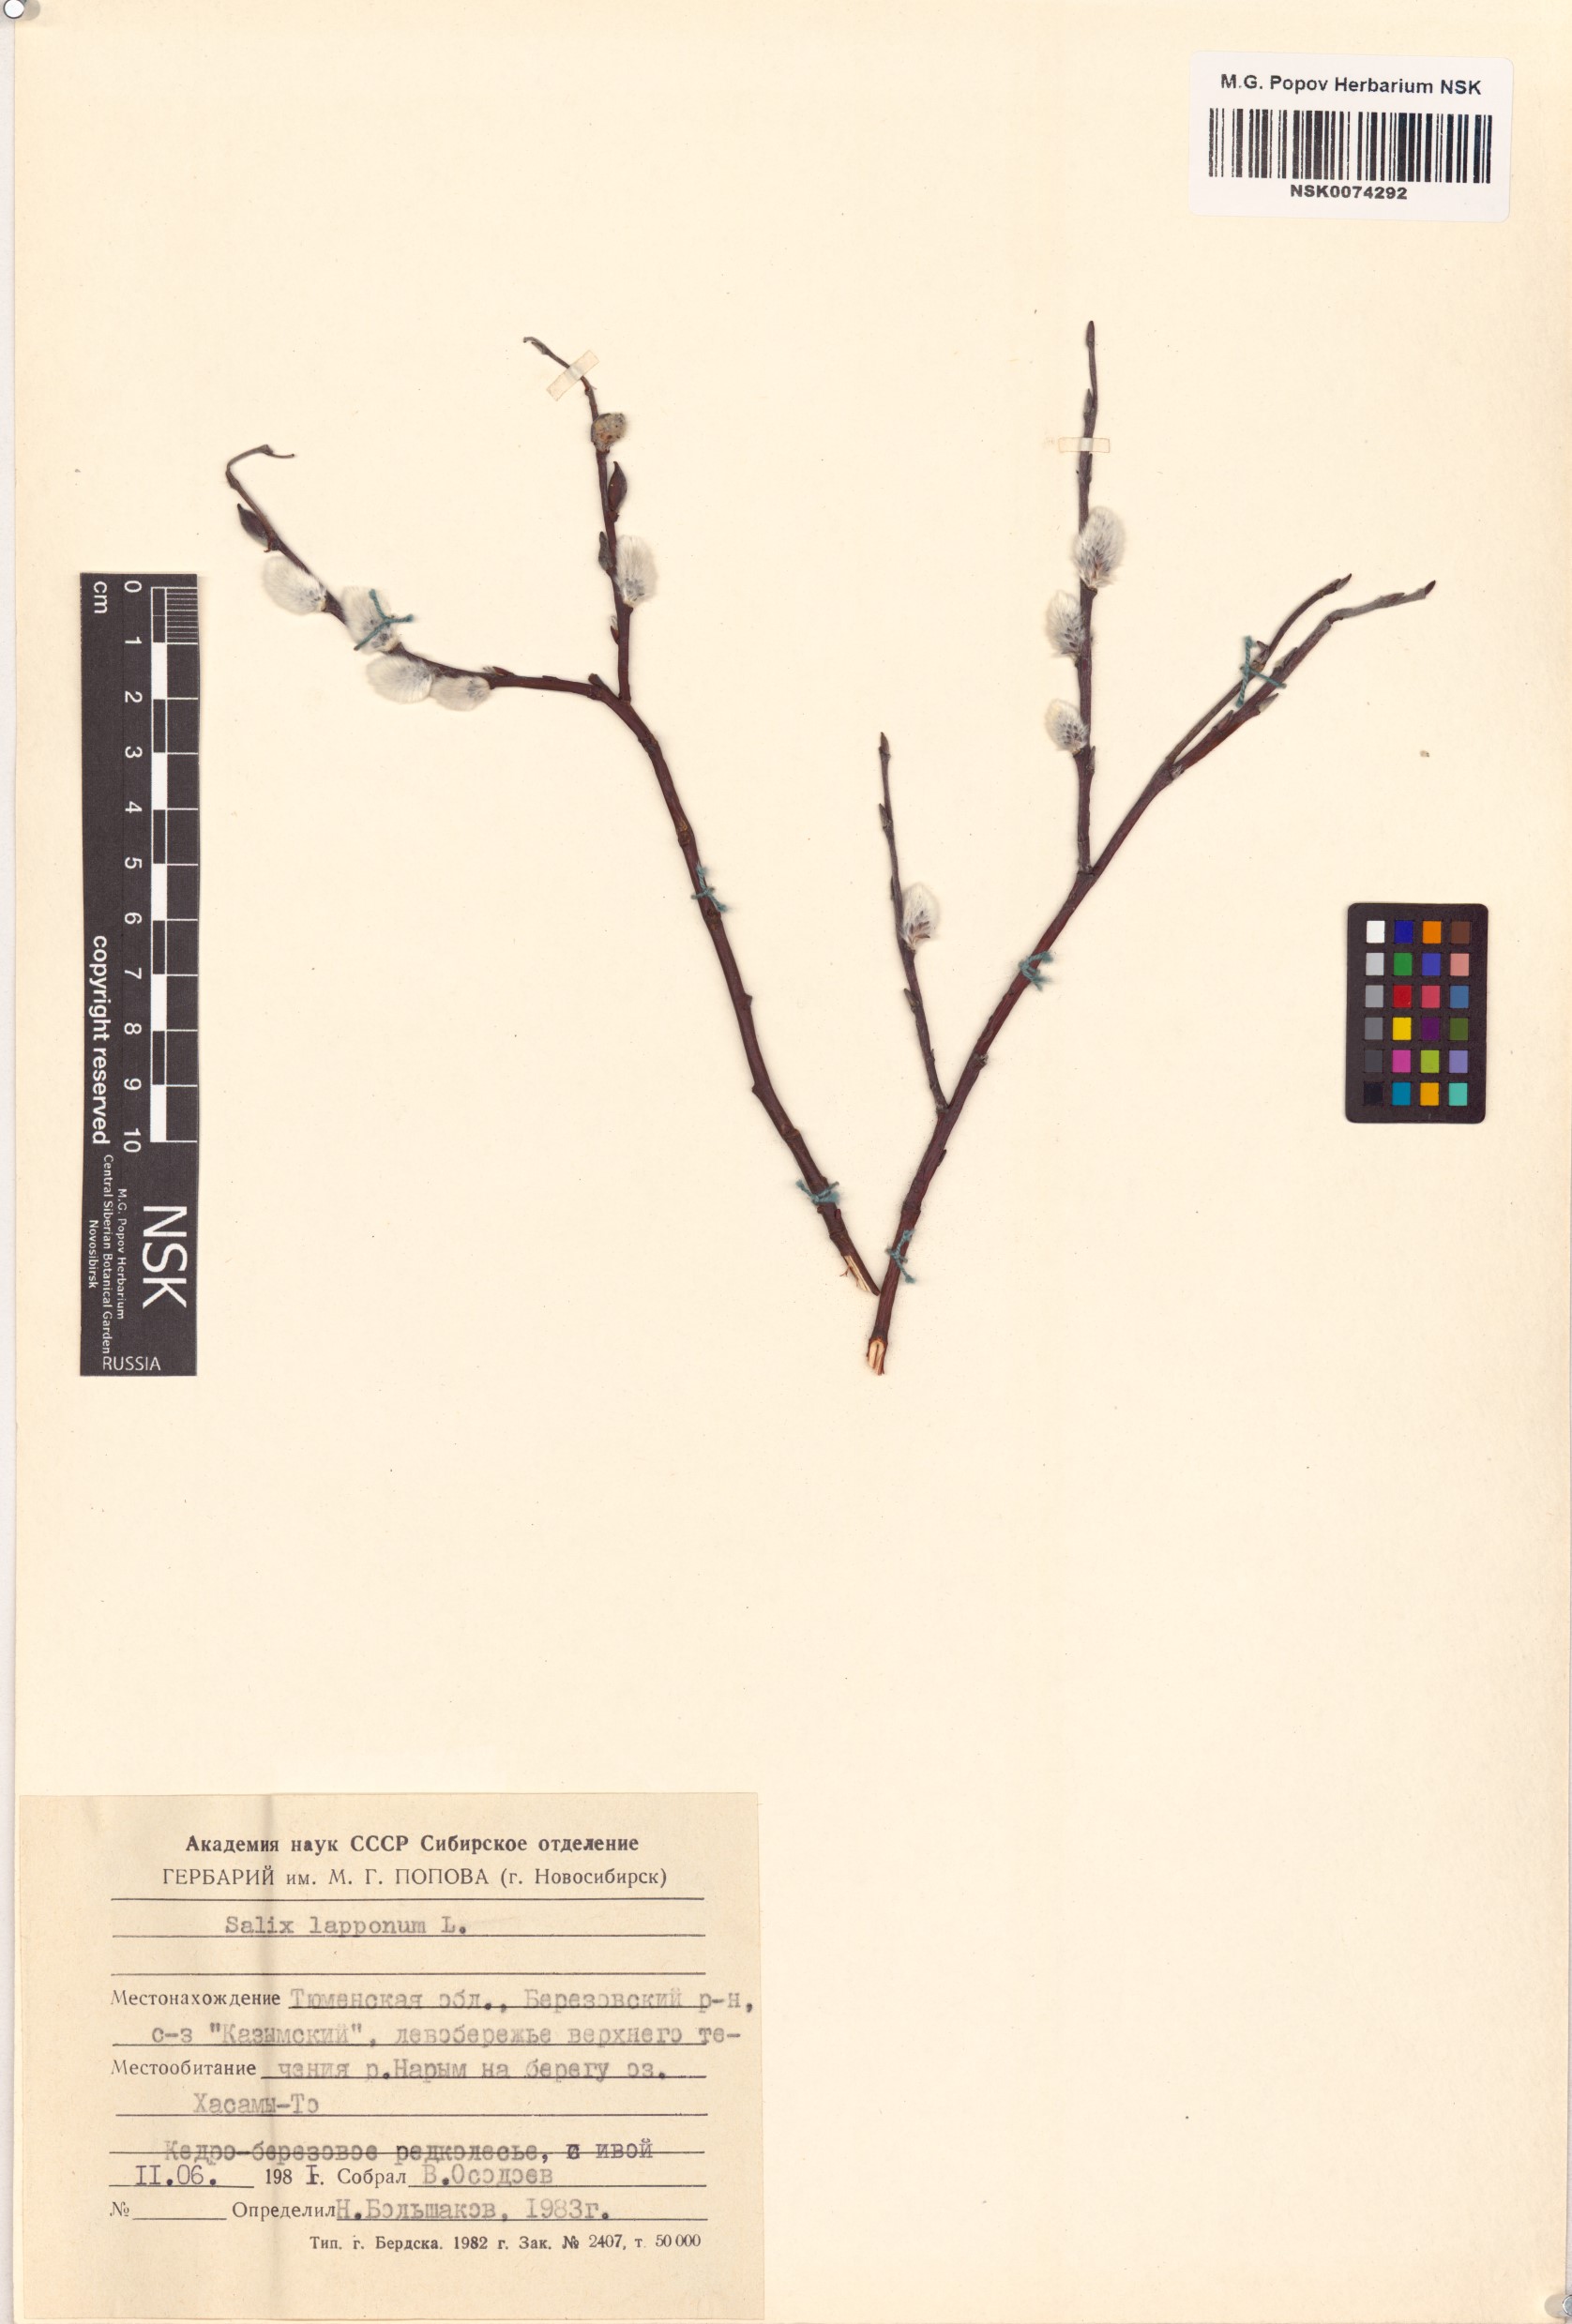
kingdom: Plantae
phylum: Tracheophyta
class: Magnoliopsida
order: Malpighiales
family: Salicaceae
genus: Salix
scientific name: Salix lapponum
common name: Downy willow
